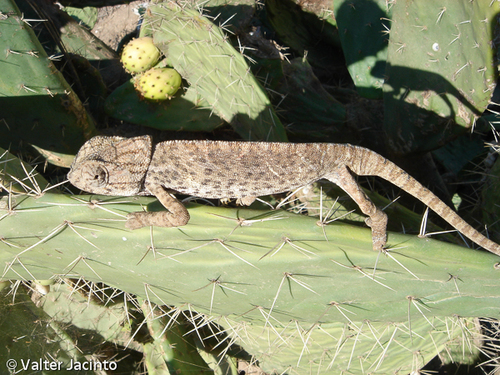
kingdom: Animalia
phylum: Chordata
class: Squamata
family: Chamaeleonidae
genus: Chamaeleo
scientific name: Chamaeleo chamaeleon
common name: Mediterranean chameleon
